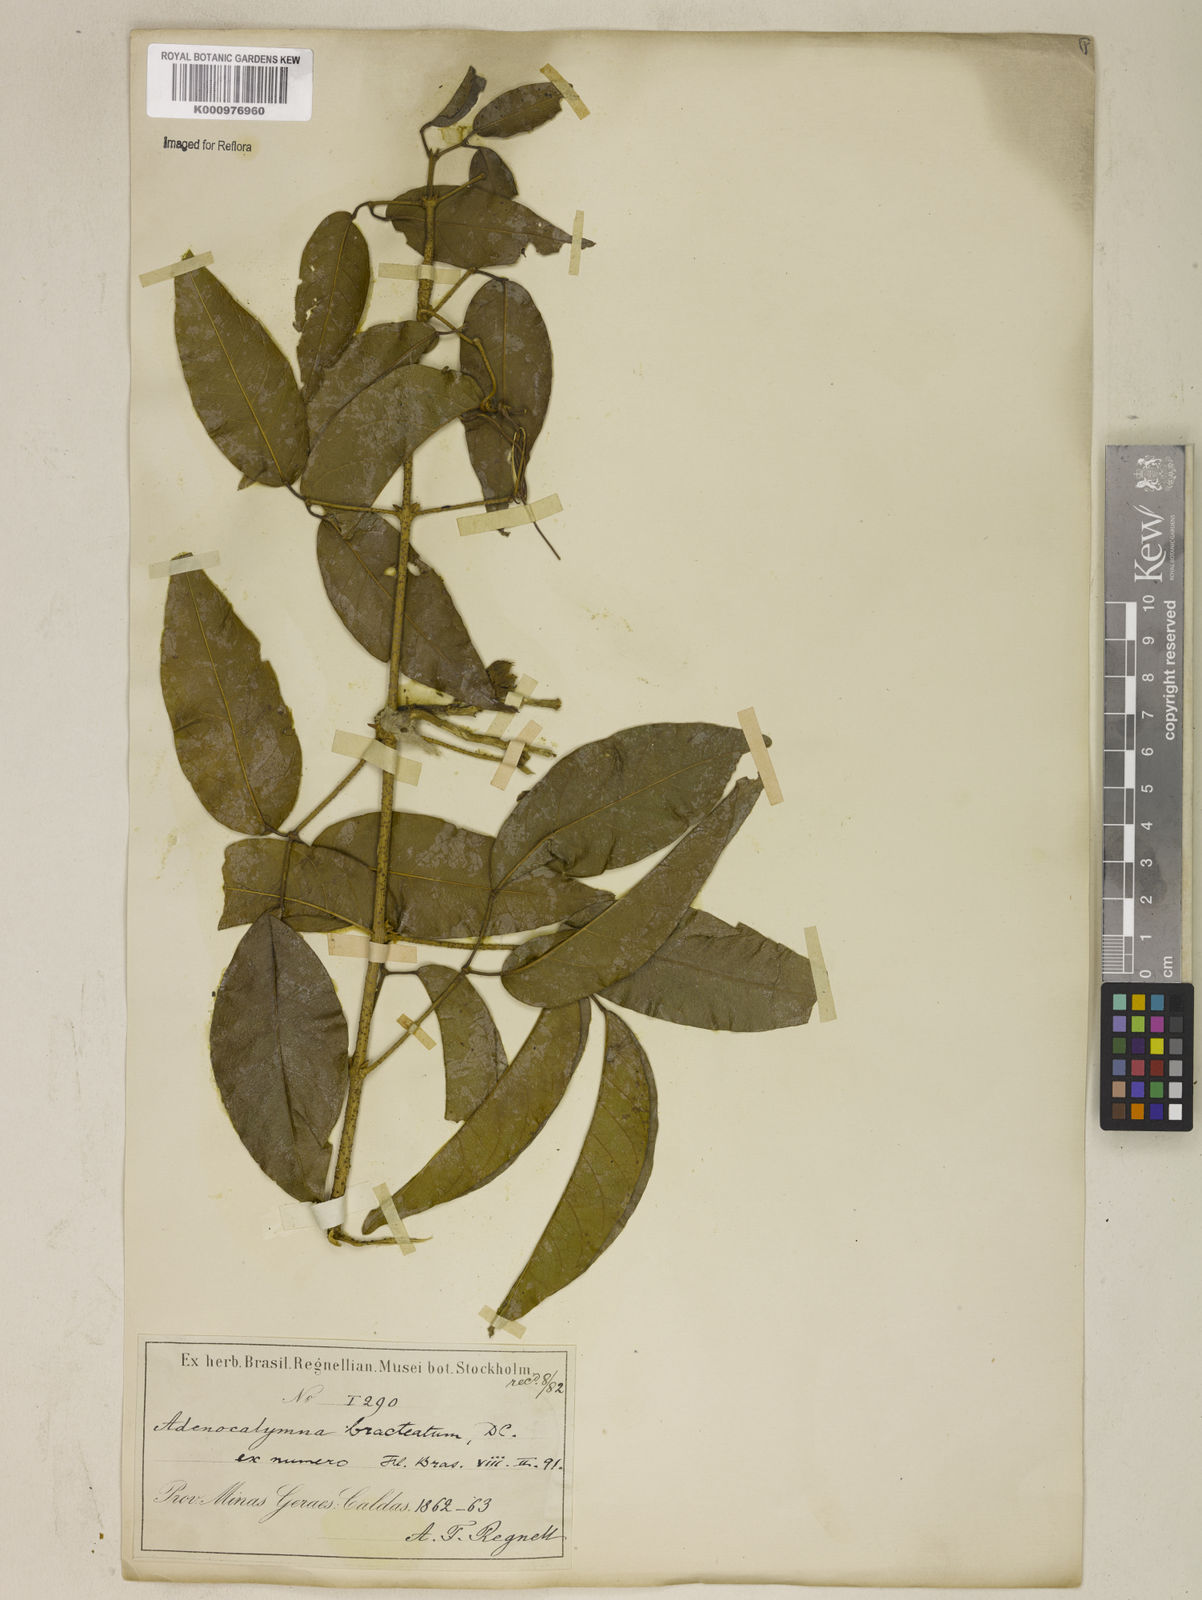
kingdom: Plantae
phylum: Tracheophyta
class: Magnoliopsida
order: Lamiales
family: Bignoniaceae
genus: Adenocalymma
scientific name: Adenocalymma bracteatum
